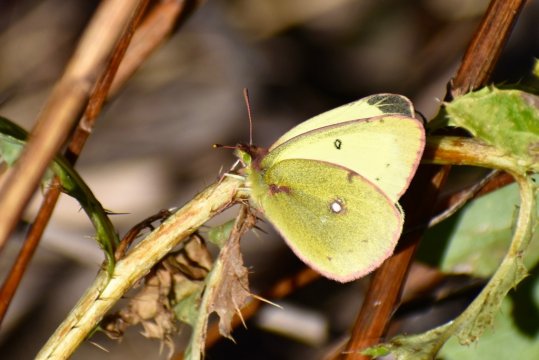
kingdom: Animalia
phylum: Arthropoda
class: Insecta
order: Lepidoptera
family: Pieridae
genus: Colias
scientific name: Colias philodice
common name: Clouded Sulphur
